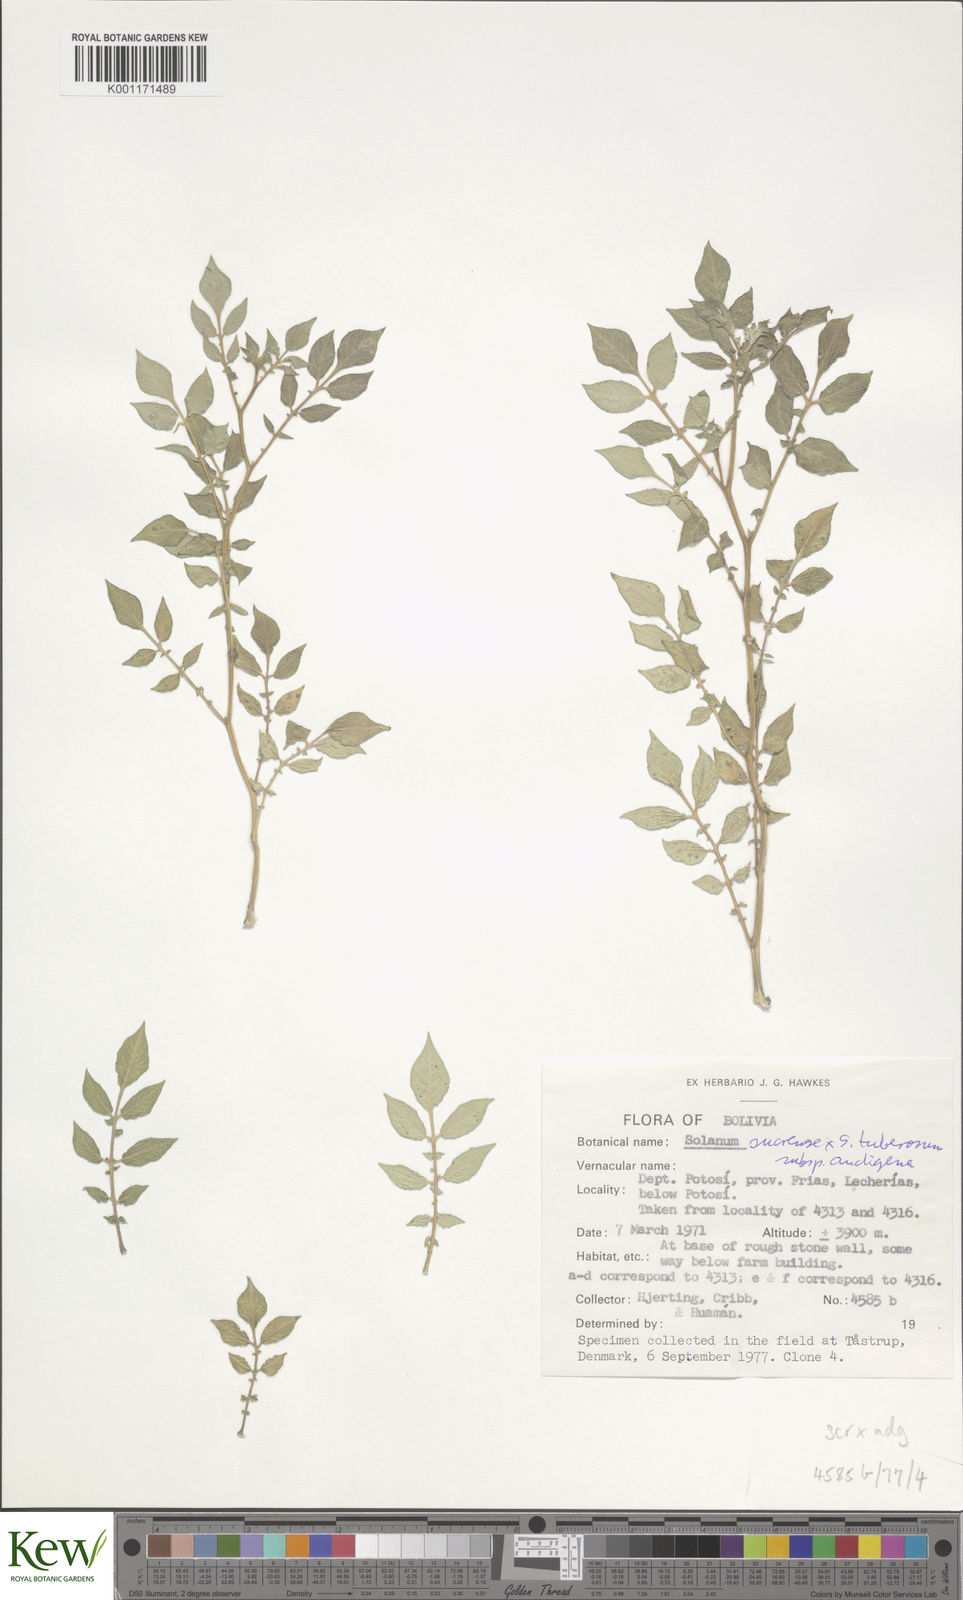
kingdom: Plantae
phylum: Tracheophyta
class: Magnoliopsida
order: Solanales
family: Solanaceae
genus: Solanum
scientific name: Solanum tuberosum
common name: Potato
